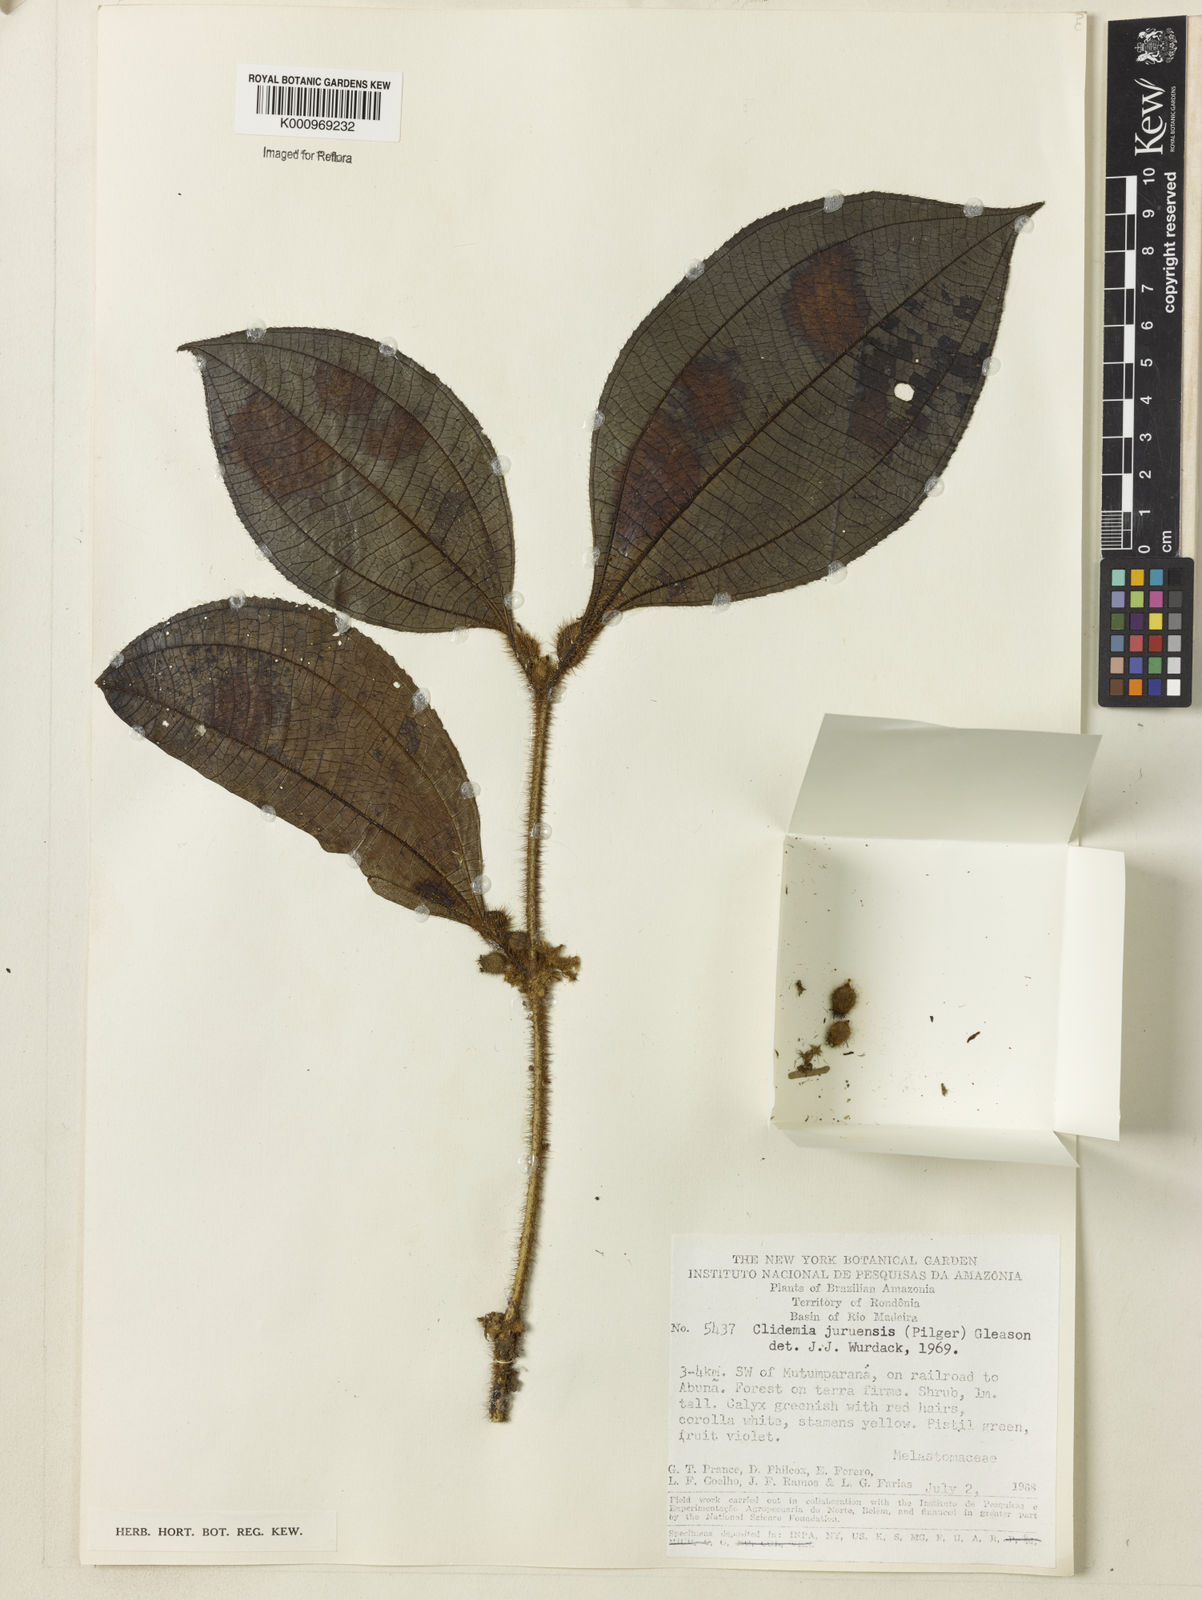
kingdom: Plantae
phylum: Tracheophyta
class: Magnoliopsida
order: Myrtales
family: Melastomataceae
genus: Miconia
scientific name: Miconia formicojuruensis
